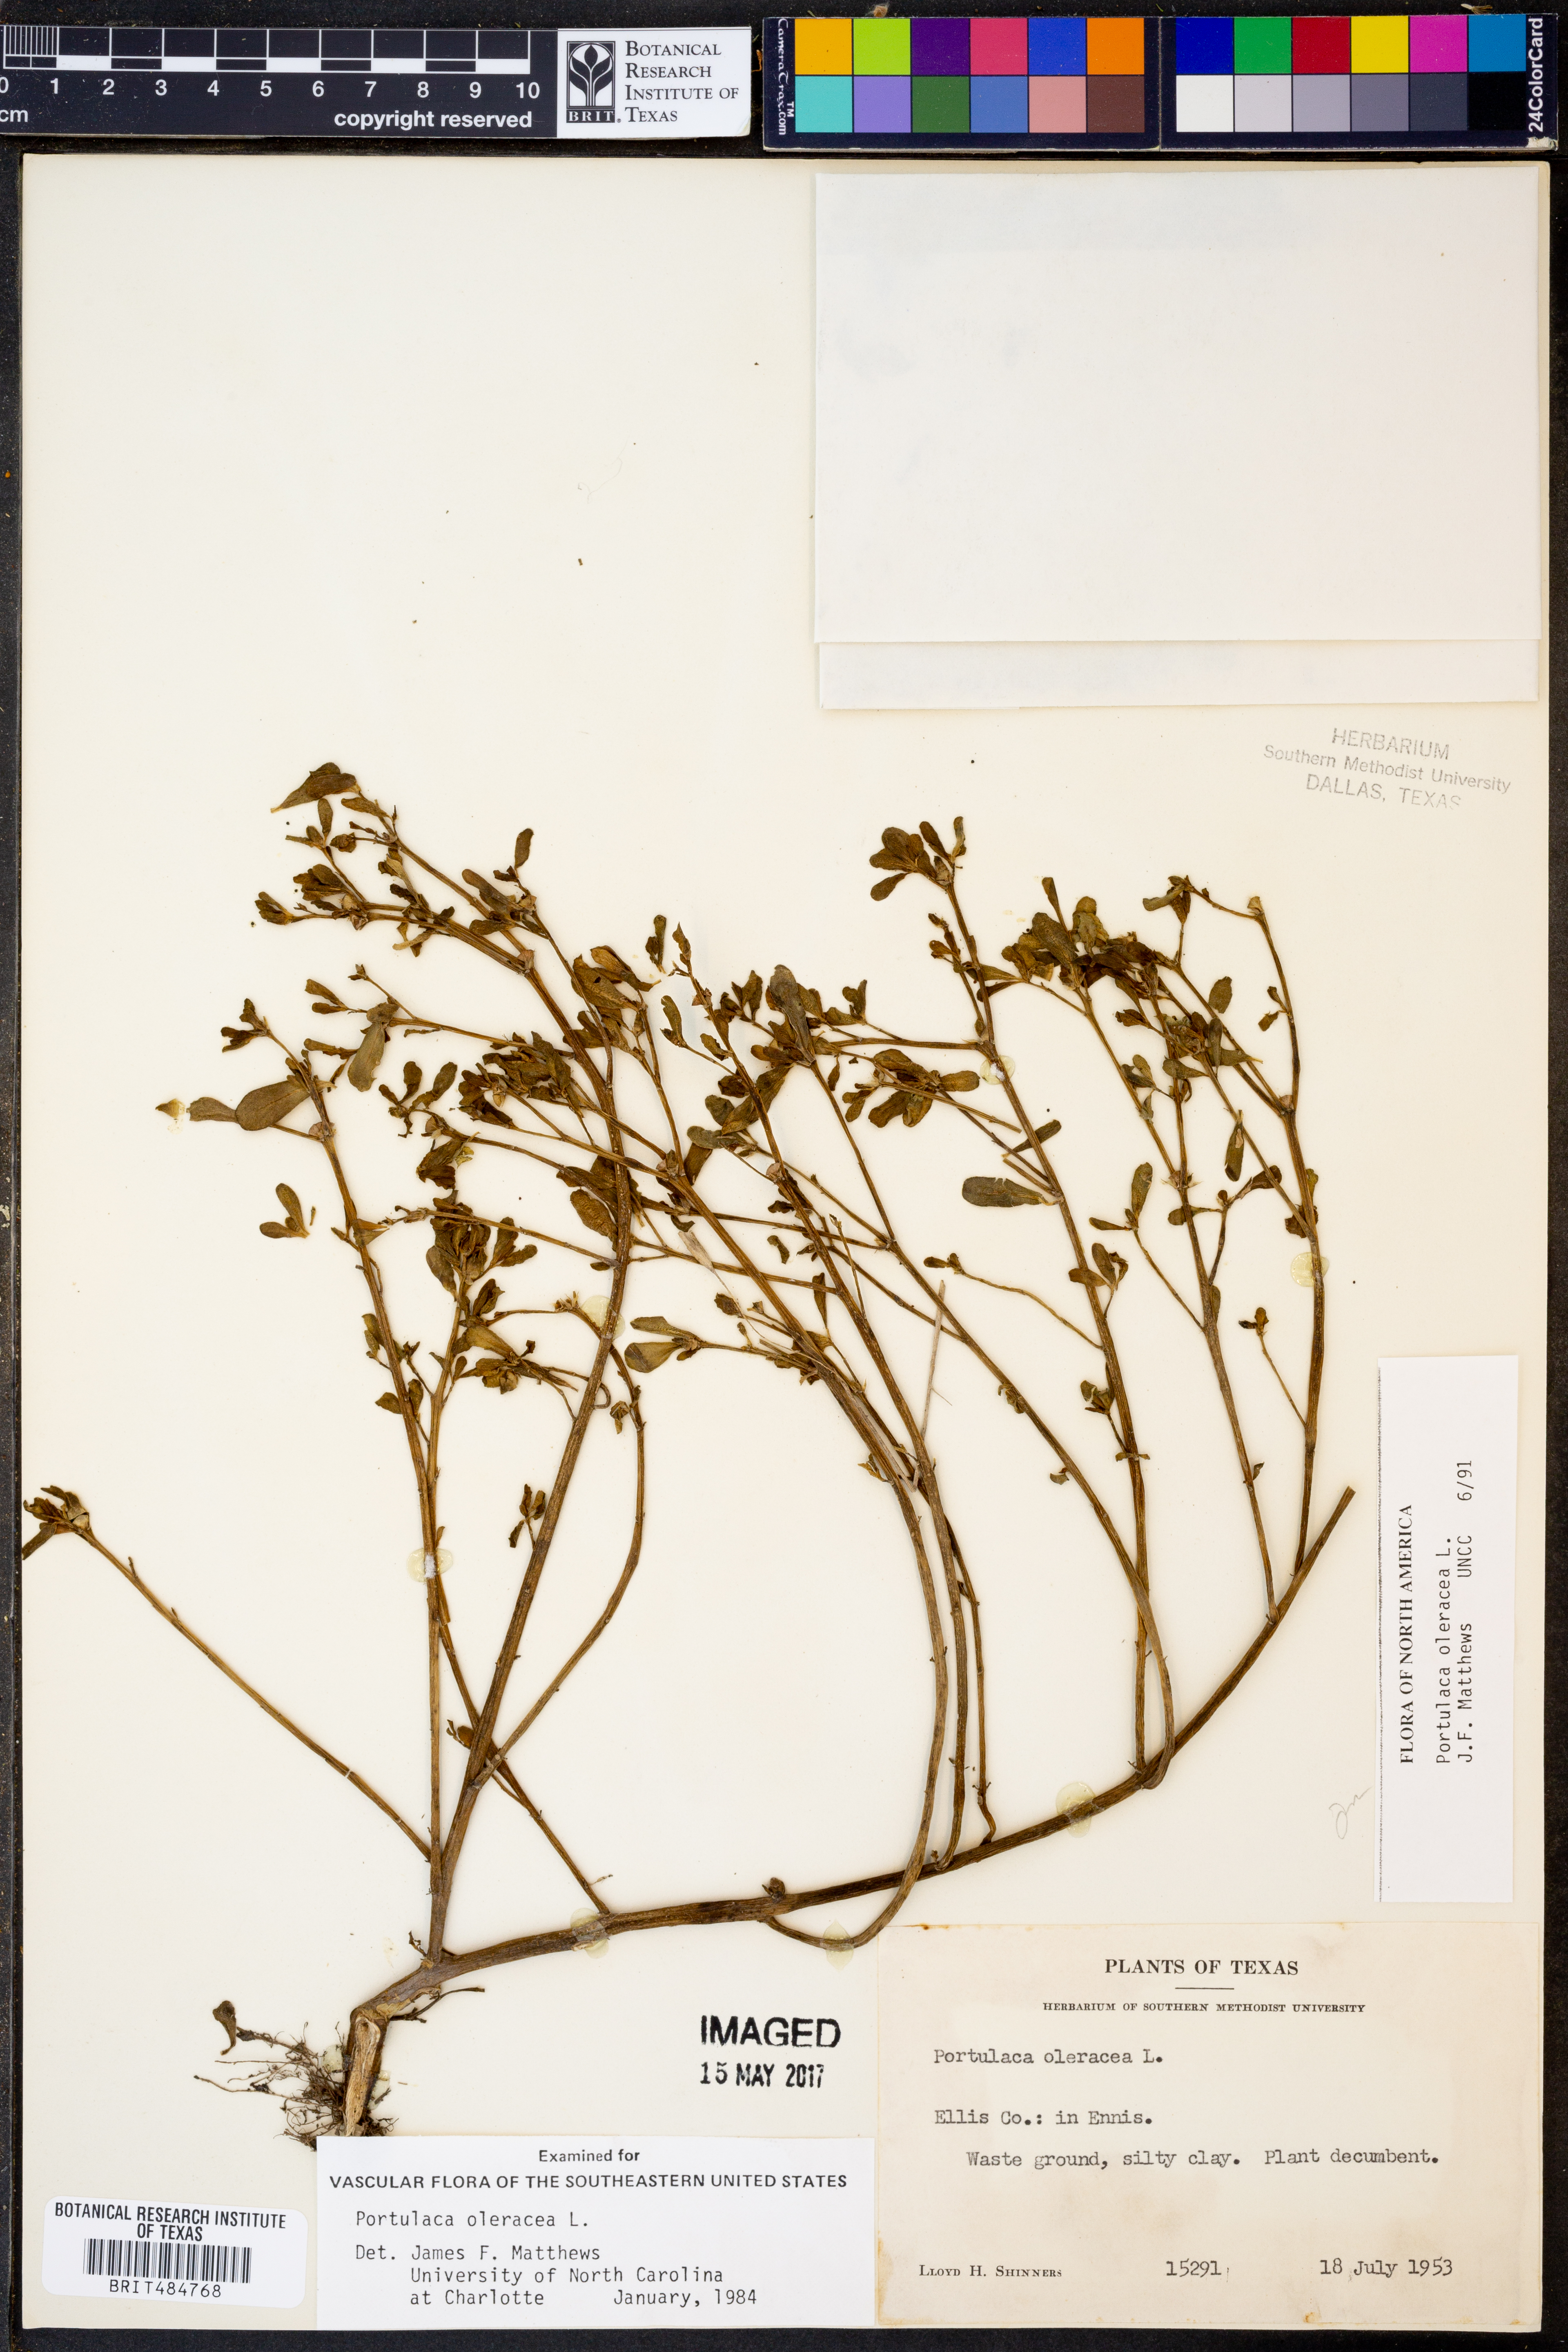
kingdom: Plantae
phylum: Tracheophyta
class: Magnoliopsida
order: Caryophyllales
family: Portulacaceae
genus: Portulaca
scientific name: Portulaca oleracea
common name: Common purslane
